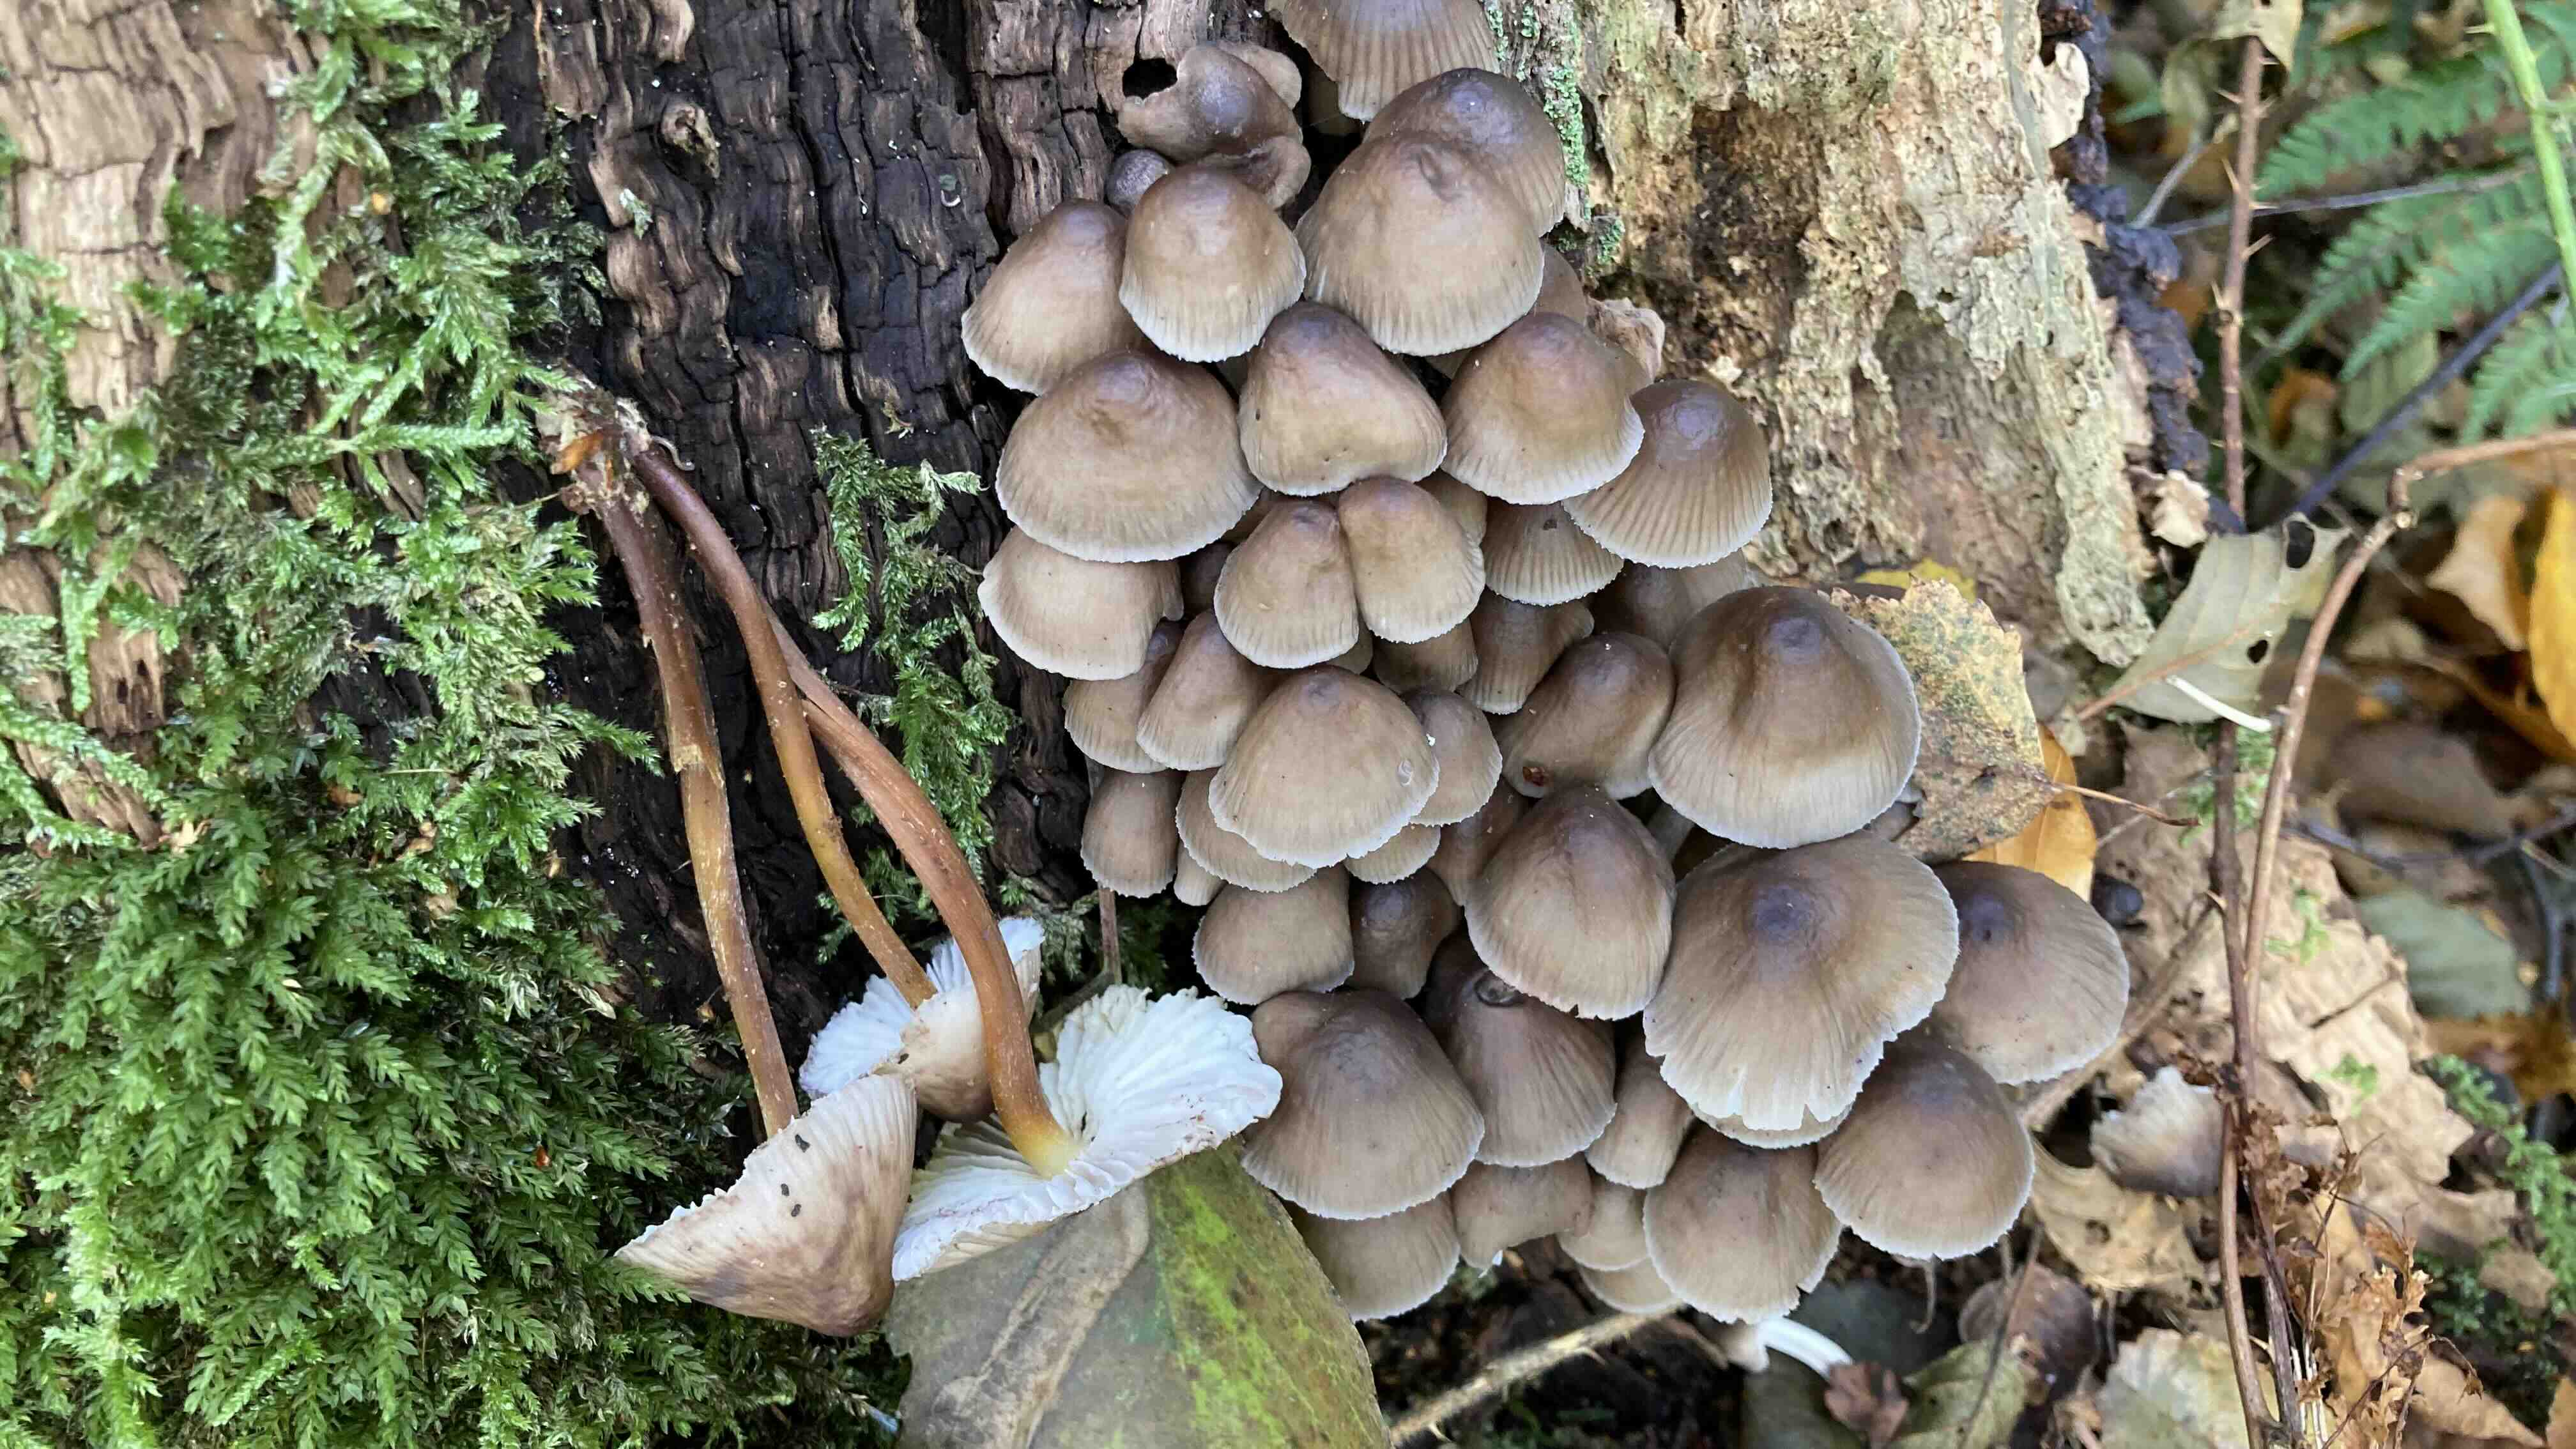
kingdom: Fungi
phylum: Basidiomycota
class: Agaricomycetes
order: Agaricales
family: Mycenaceae
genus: Mycena
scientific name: Mycena inclinata
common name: nikkende huesvamp
